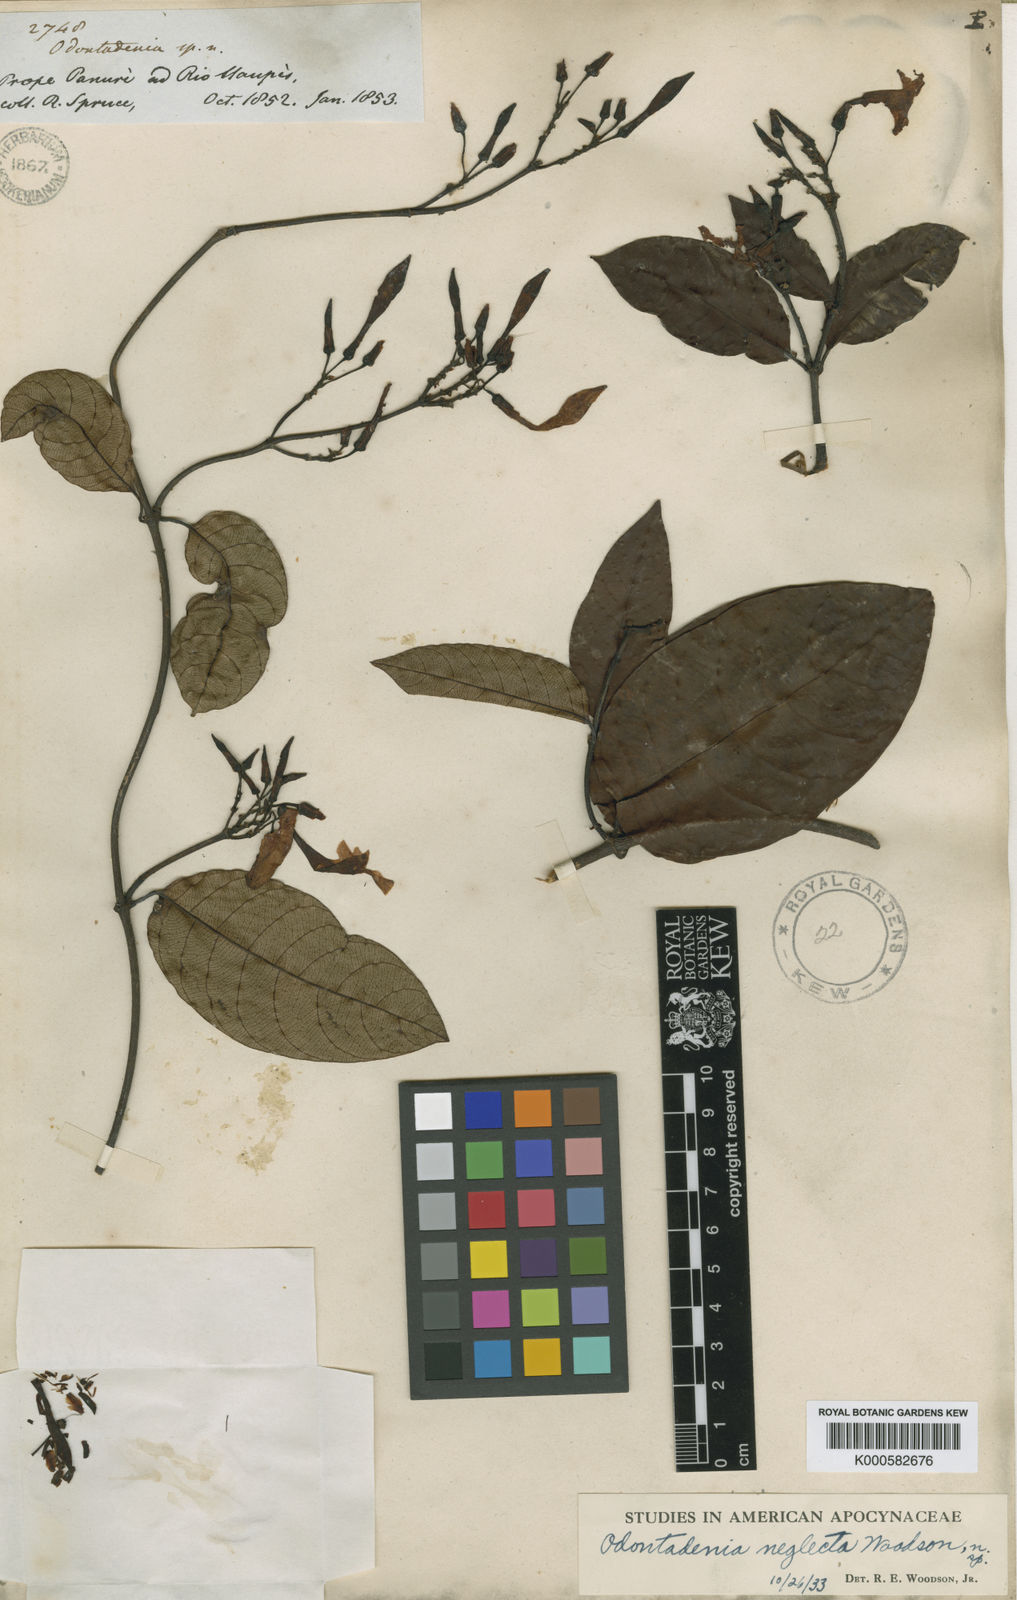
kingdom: Plantae
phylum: Tracheophyta
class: Magnoliopsida
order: Gentianales
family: Apocynaceae
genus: Odontadenia
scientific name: Odontadenia verrucosa
